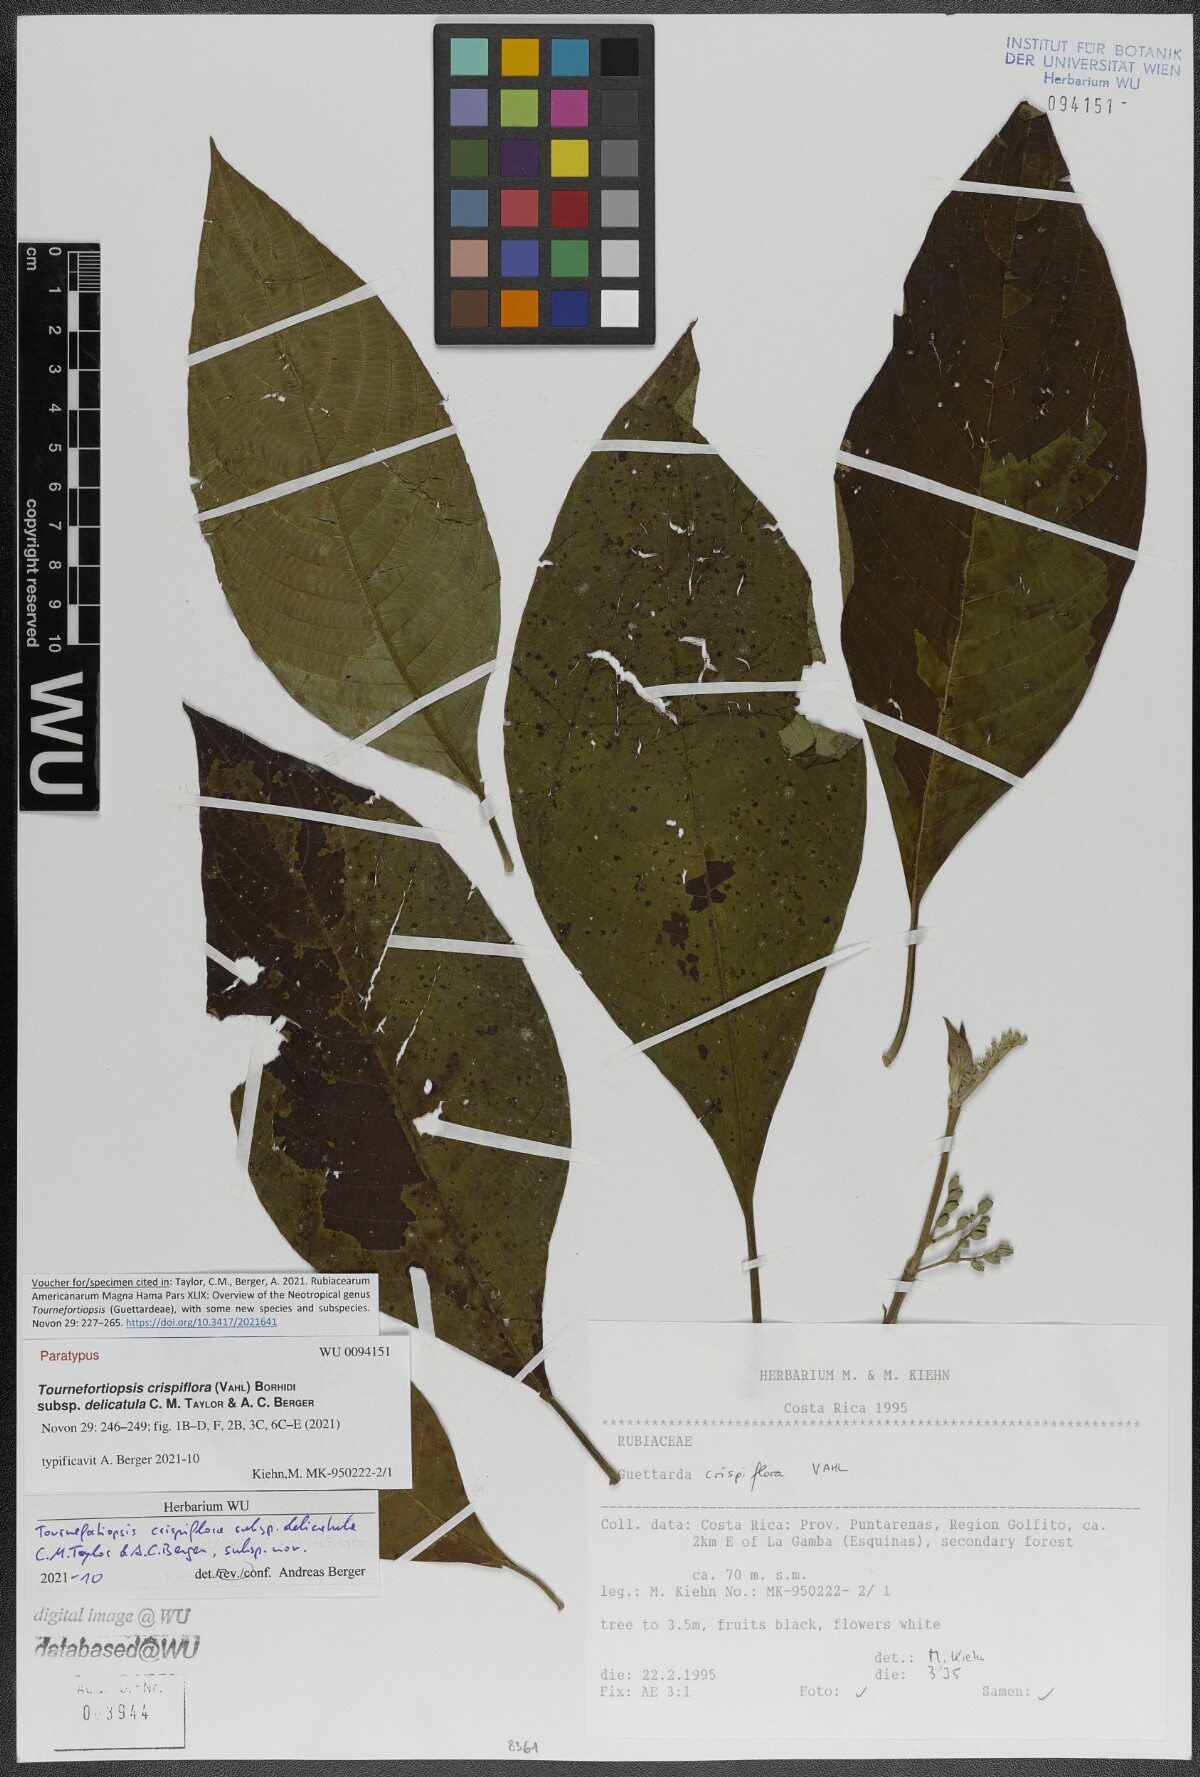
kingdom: Plantae
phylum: Tracheophyta
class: Magnoliopsida
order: Gentianales
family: Rubiaceae
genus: Tournefortiopsis
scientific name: Tournefortiopsis crispiflora
